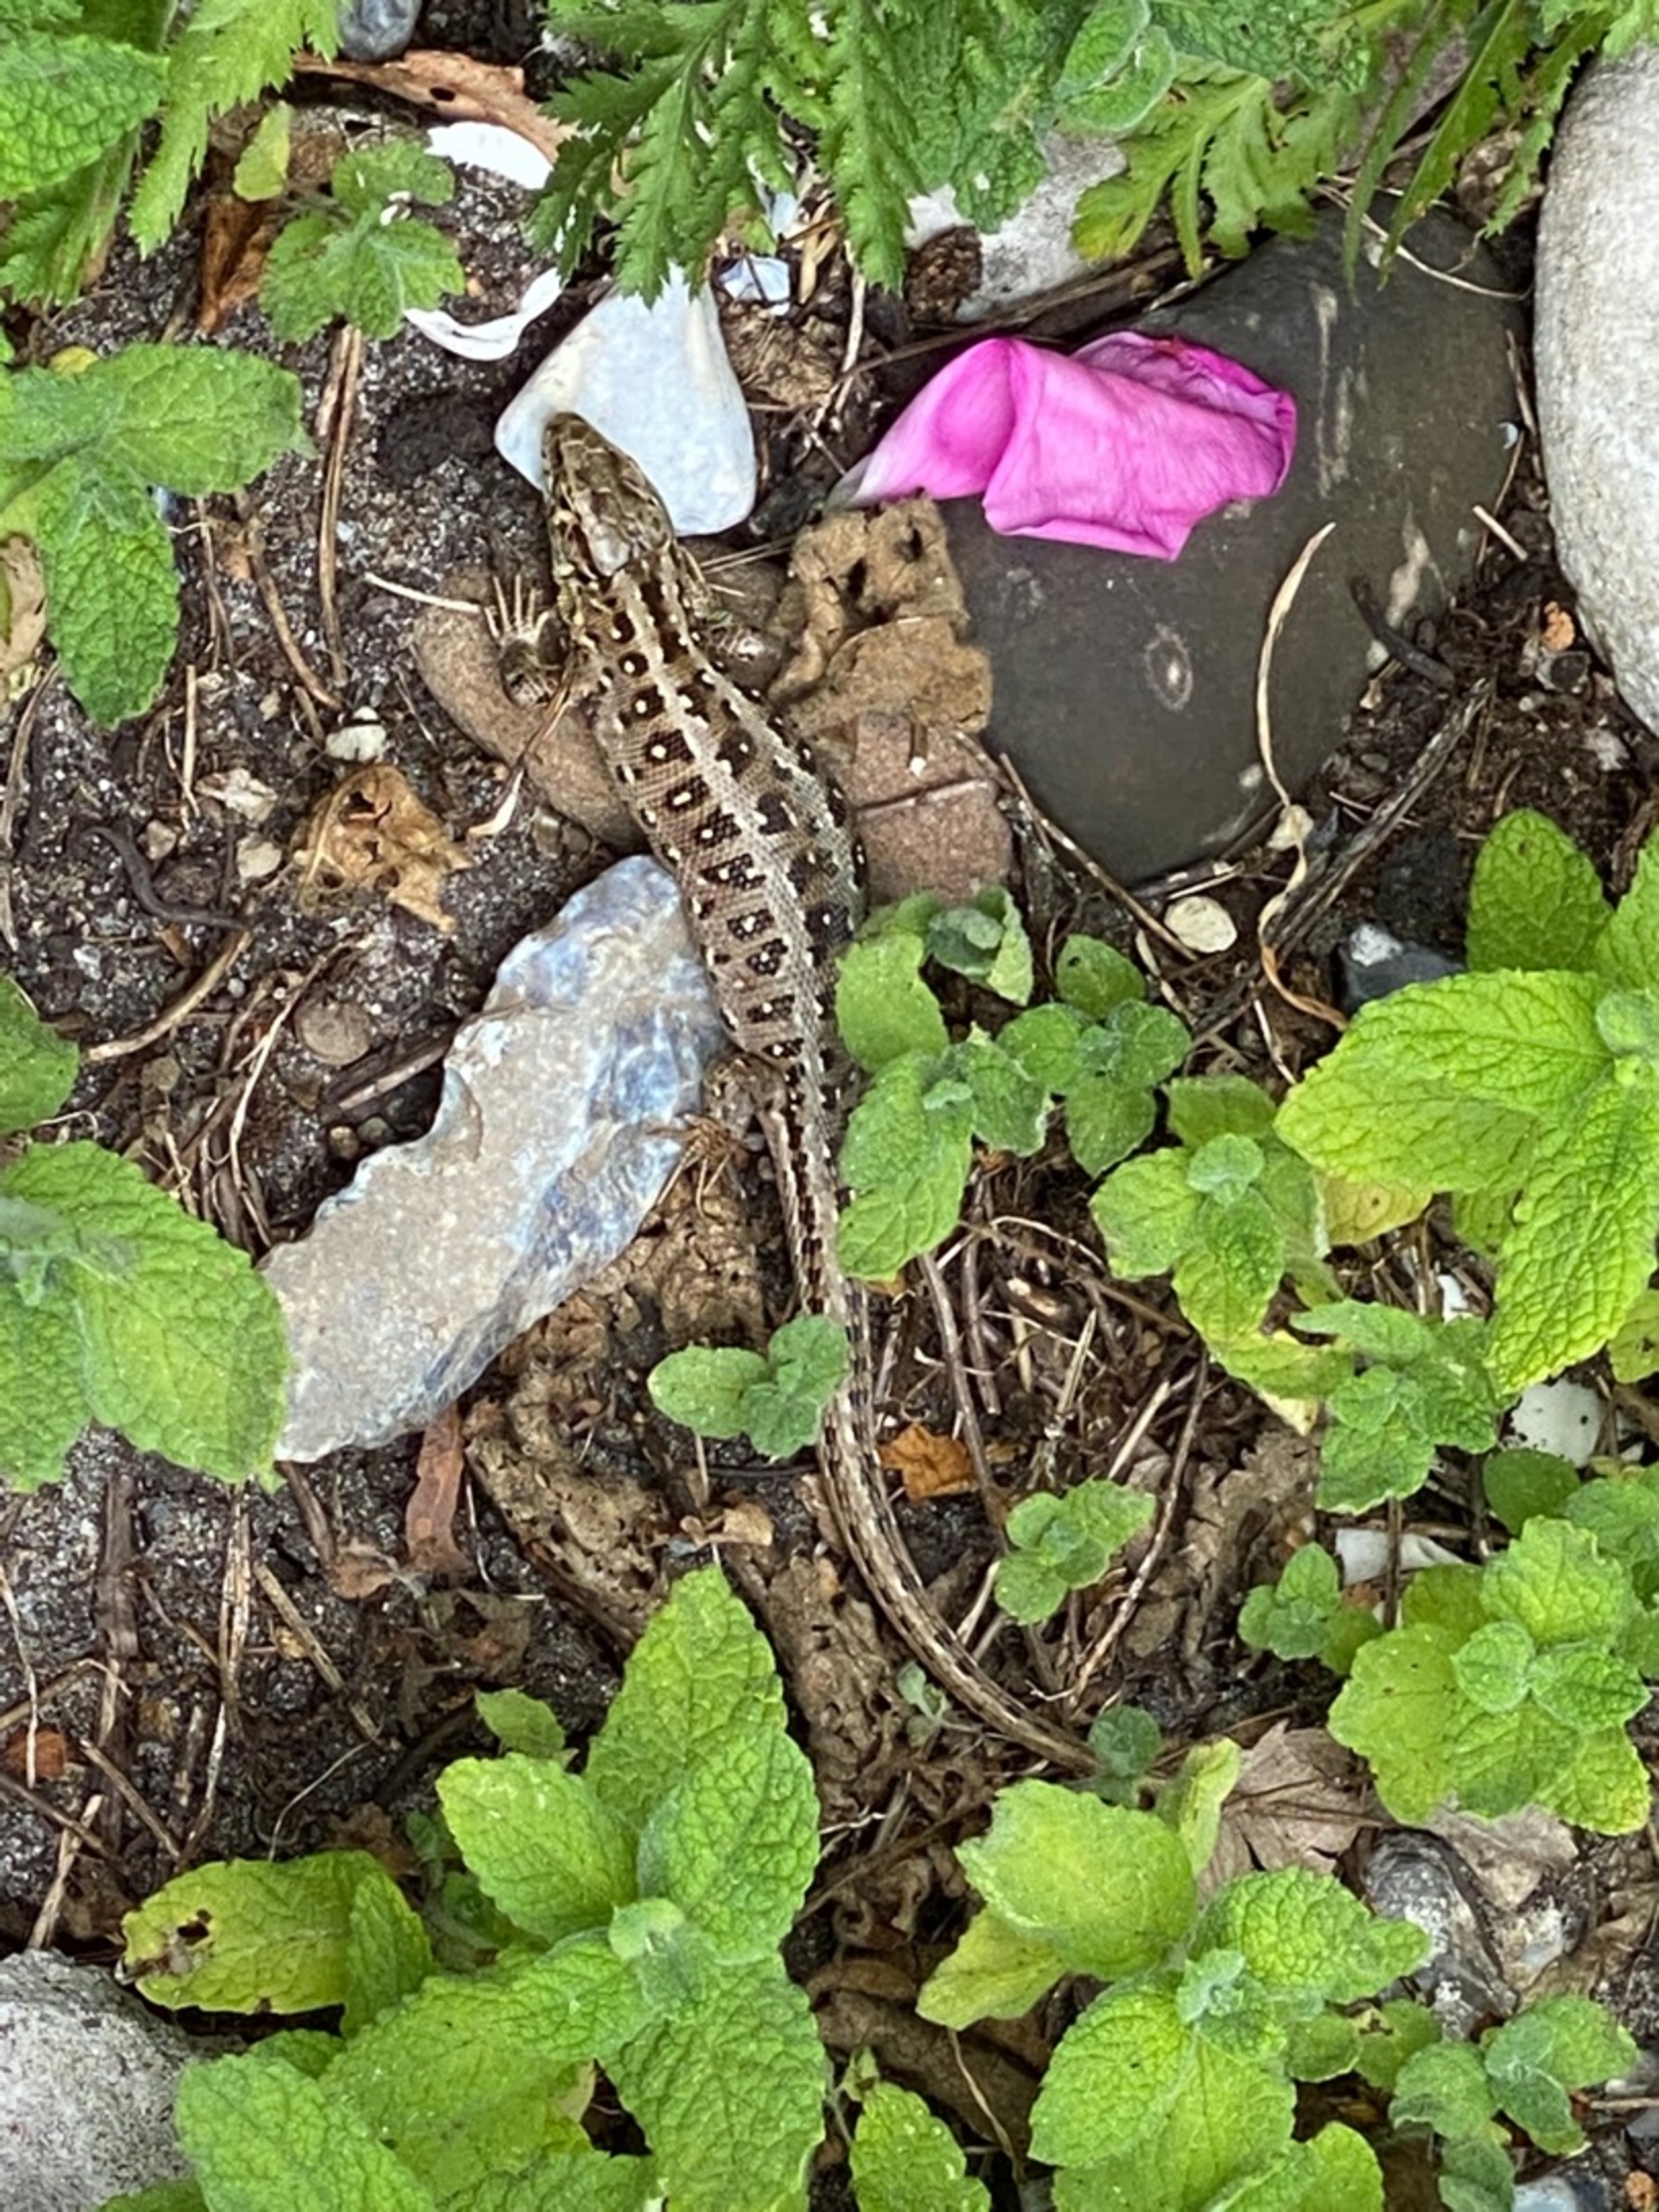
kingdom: Animalia
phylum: Chordata
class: Squamata
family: Lacertidae
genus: Lacerta
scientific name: Lacerta agilis
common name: Markfirben
